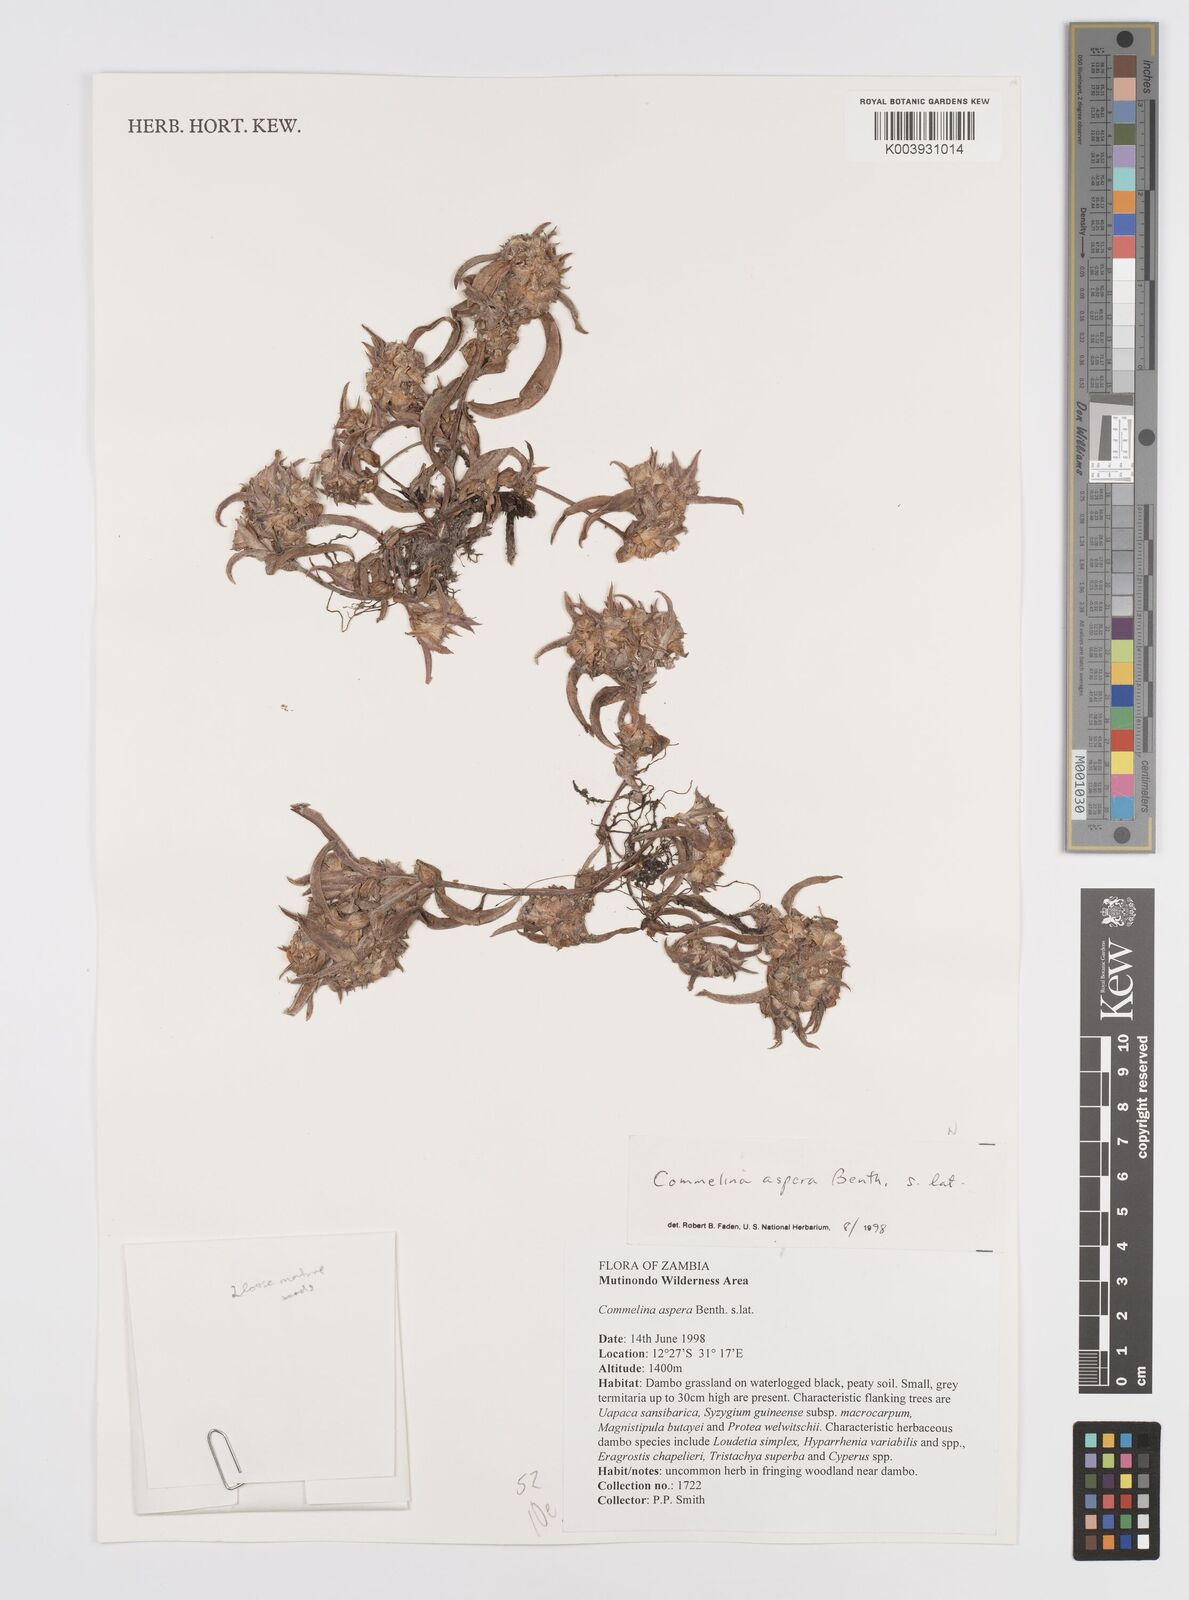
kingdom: Plantae
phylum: Tracheophyta
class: Liliopsida
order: Commelinales
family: Commelinaceae
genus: Commelina
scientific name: Commelina aspera
